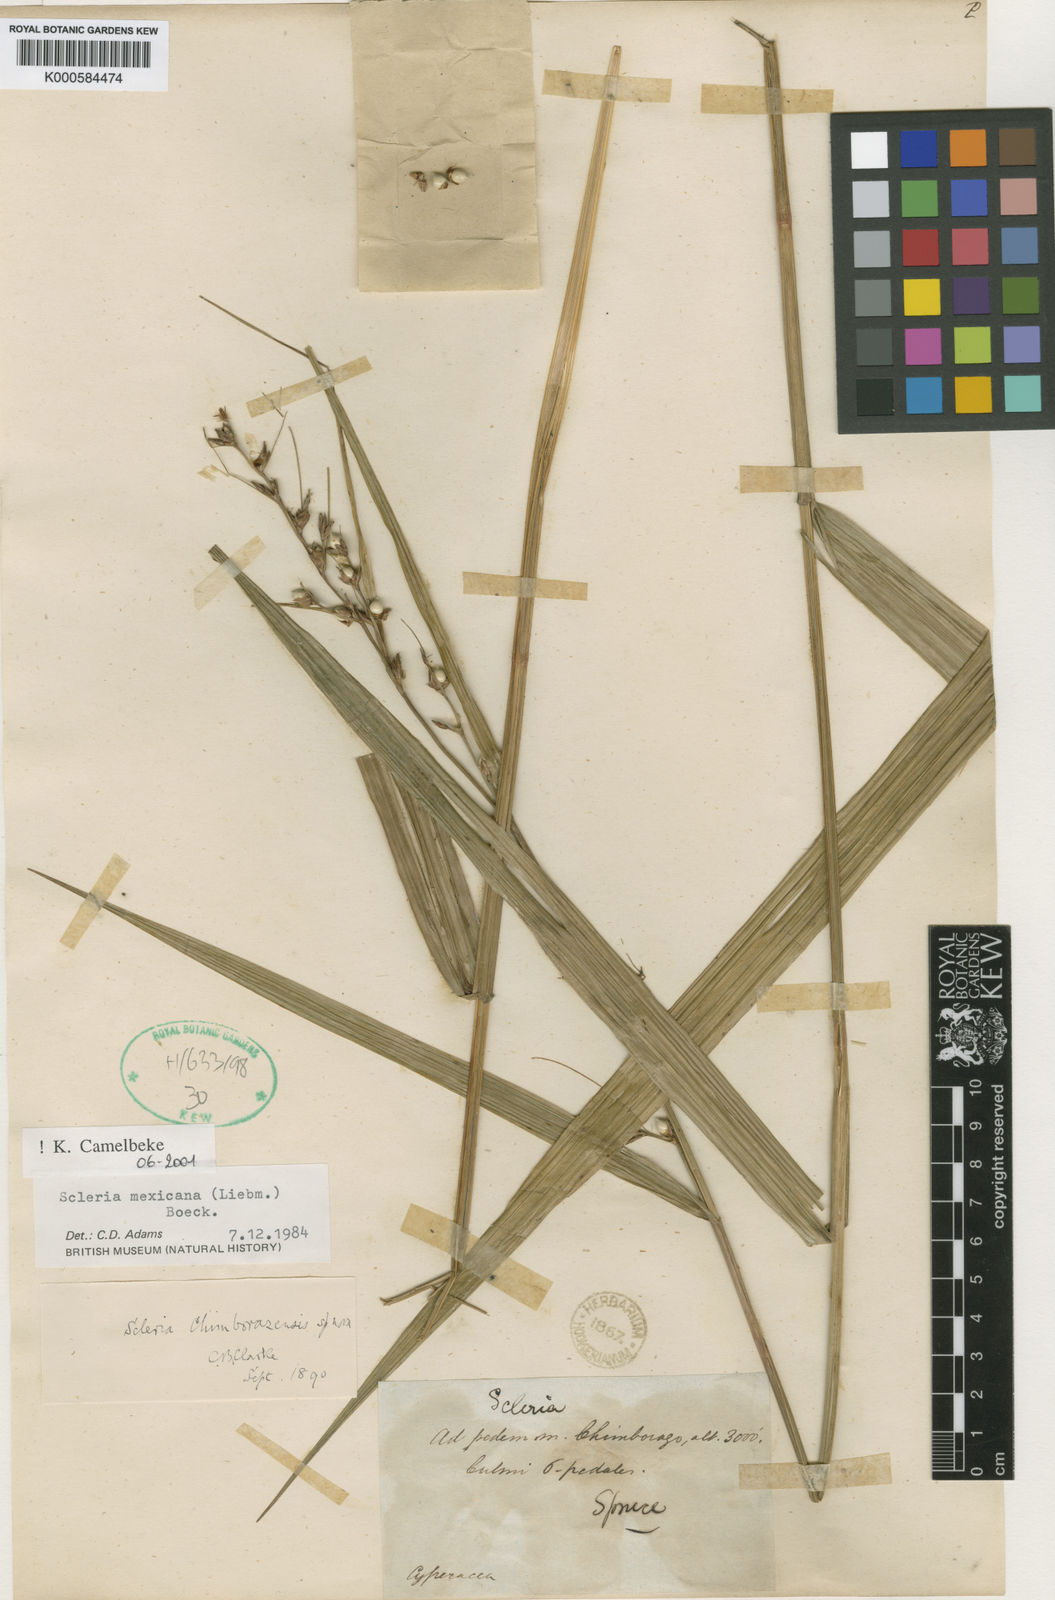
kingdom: Plantae
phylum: Tracheophyta
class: Liliopsida
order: Poales
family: Cyperaceae
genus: Scleria
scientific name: Scleria sororia
